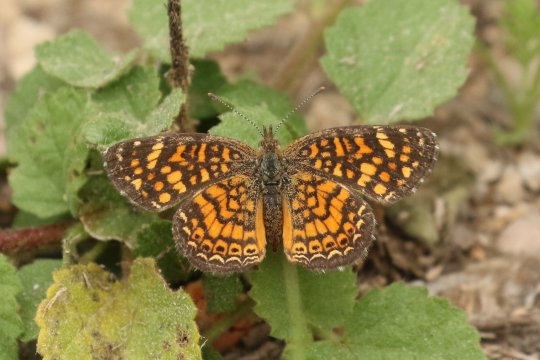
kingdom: Animalia
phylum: Arthropoda
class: Insecta
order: Lepidoptera
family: Nymphalidae
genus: Phyciodes
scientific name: Phyciodes vesta
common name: Vesta Crescent
